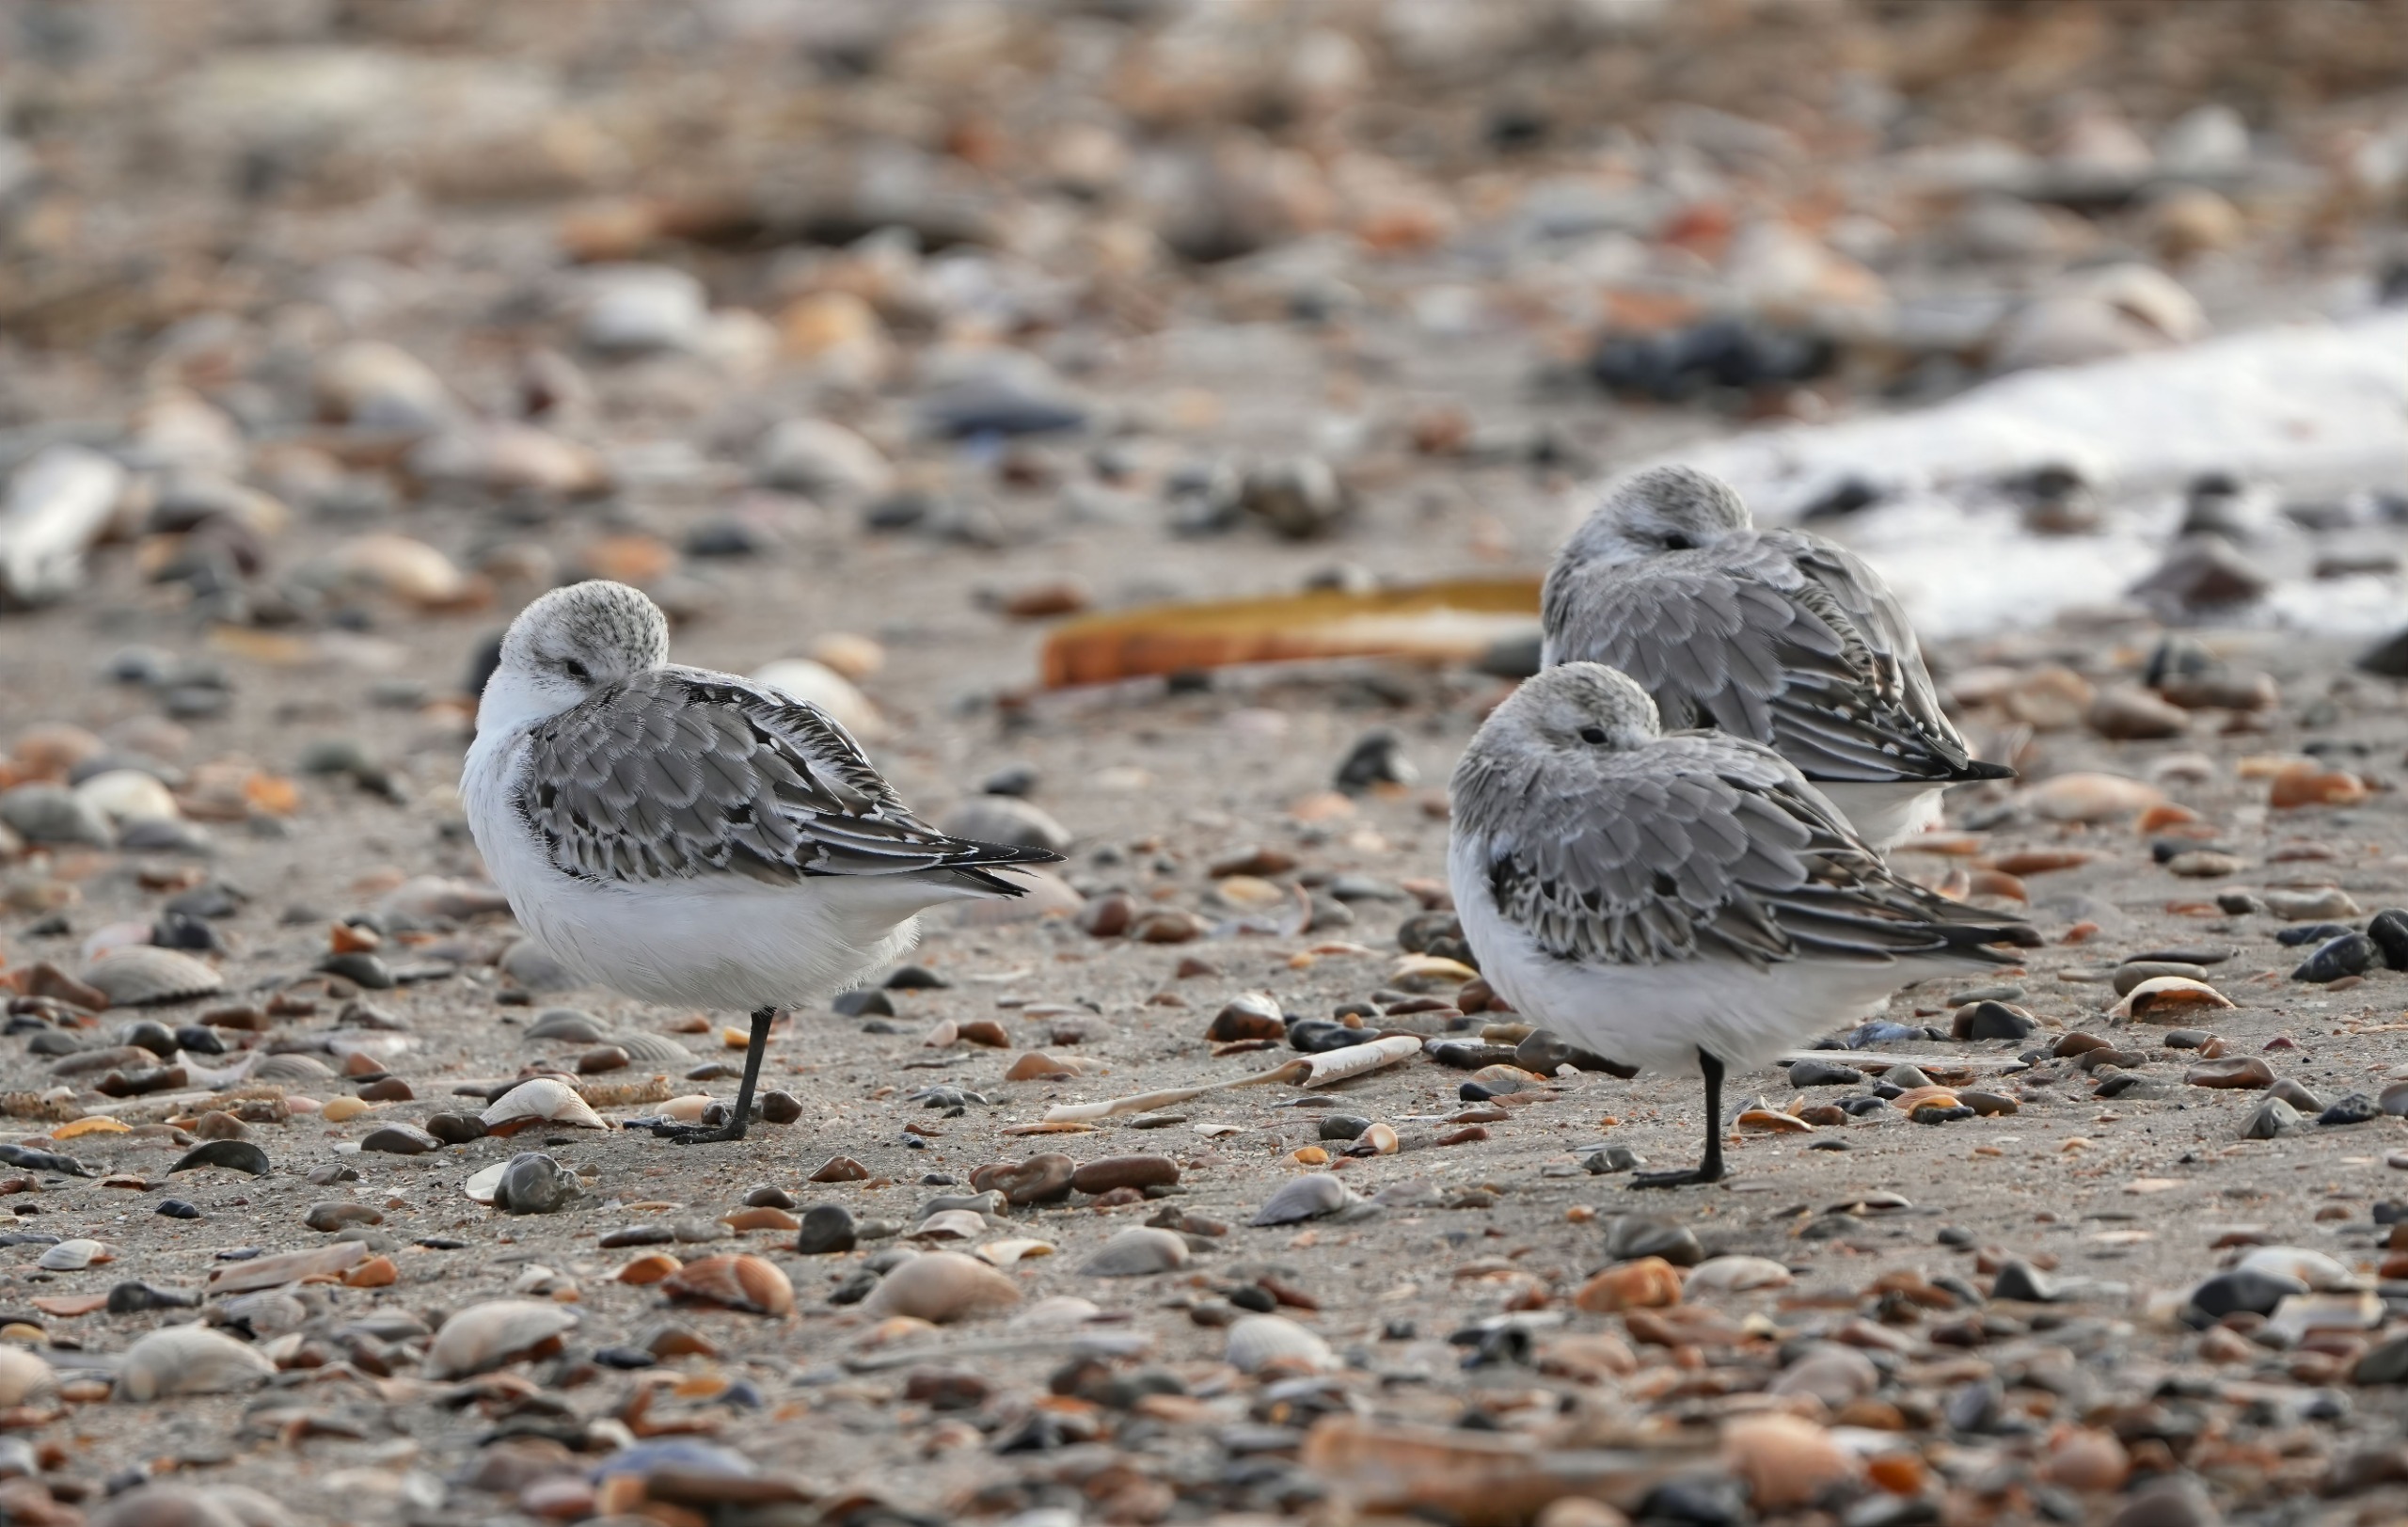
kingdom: Animalia
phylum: Chordata
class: Aves
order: Charadriiformes
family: Scolopacidae
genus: Calidris
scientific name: Calidris alba
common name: Sandløber
